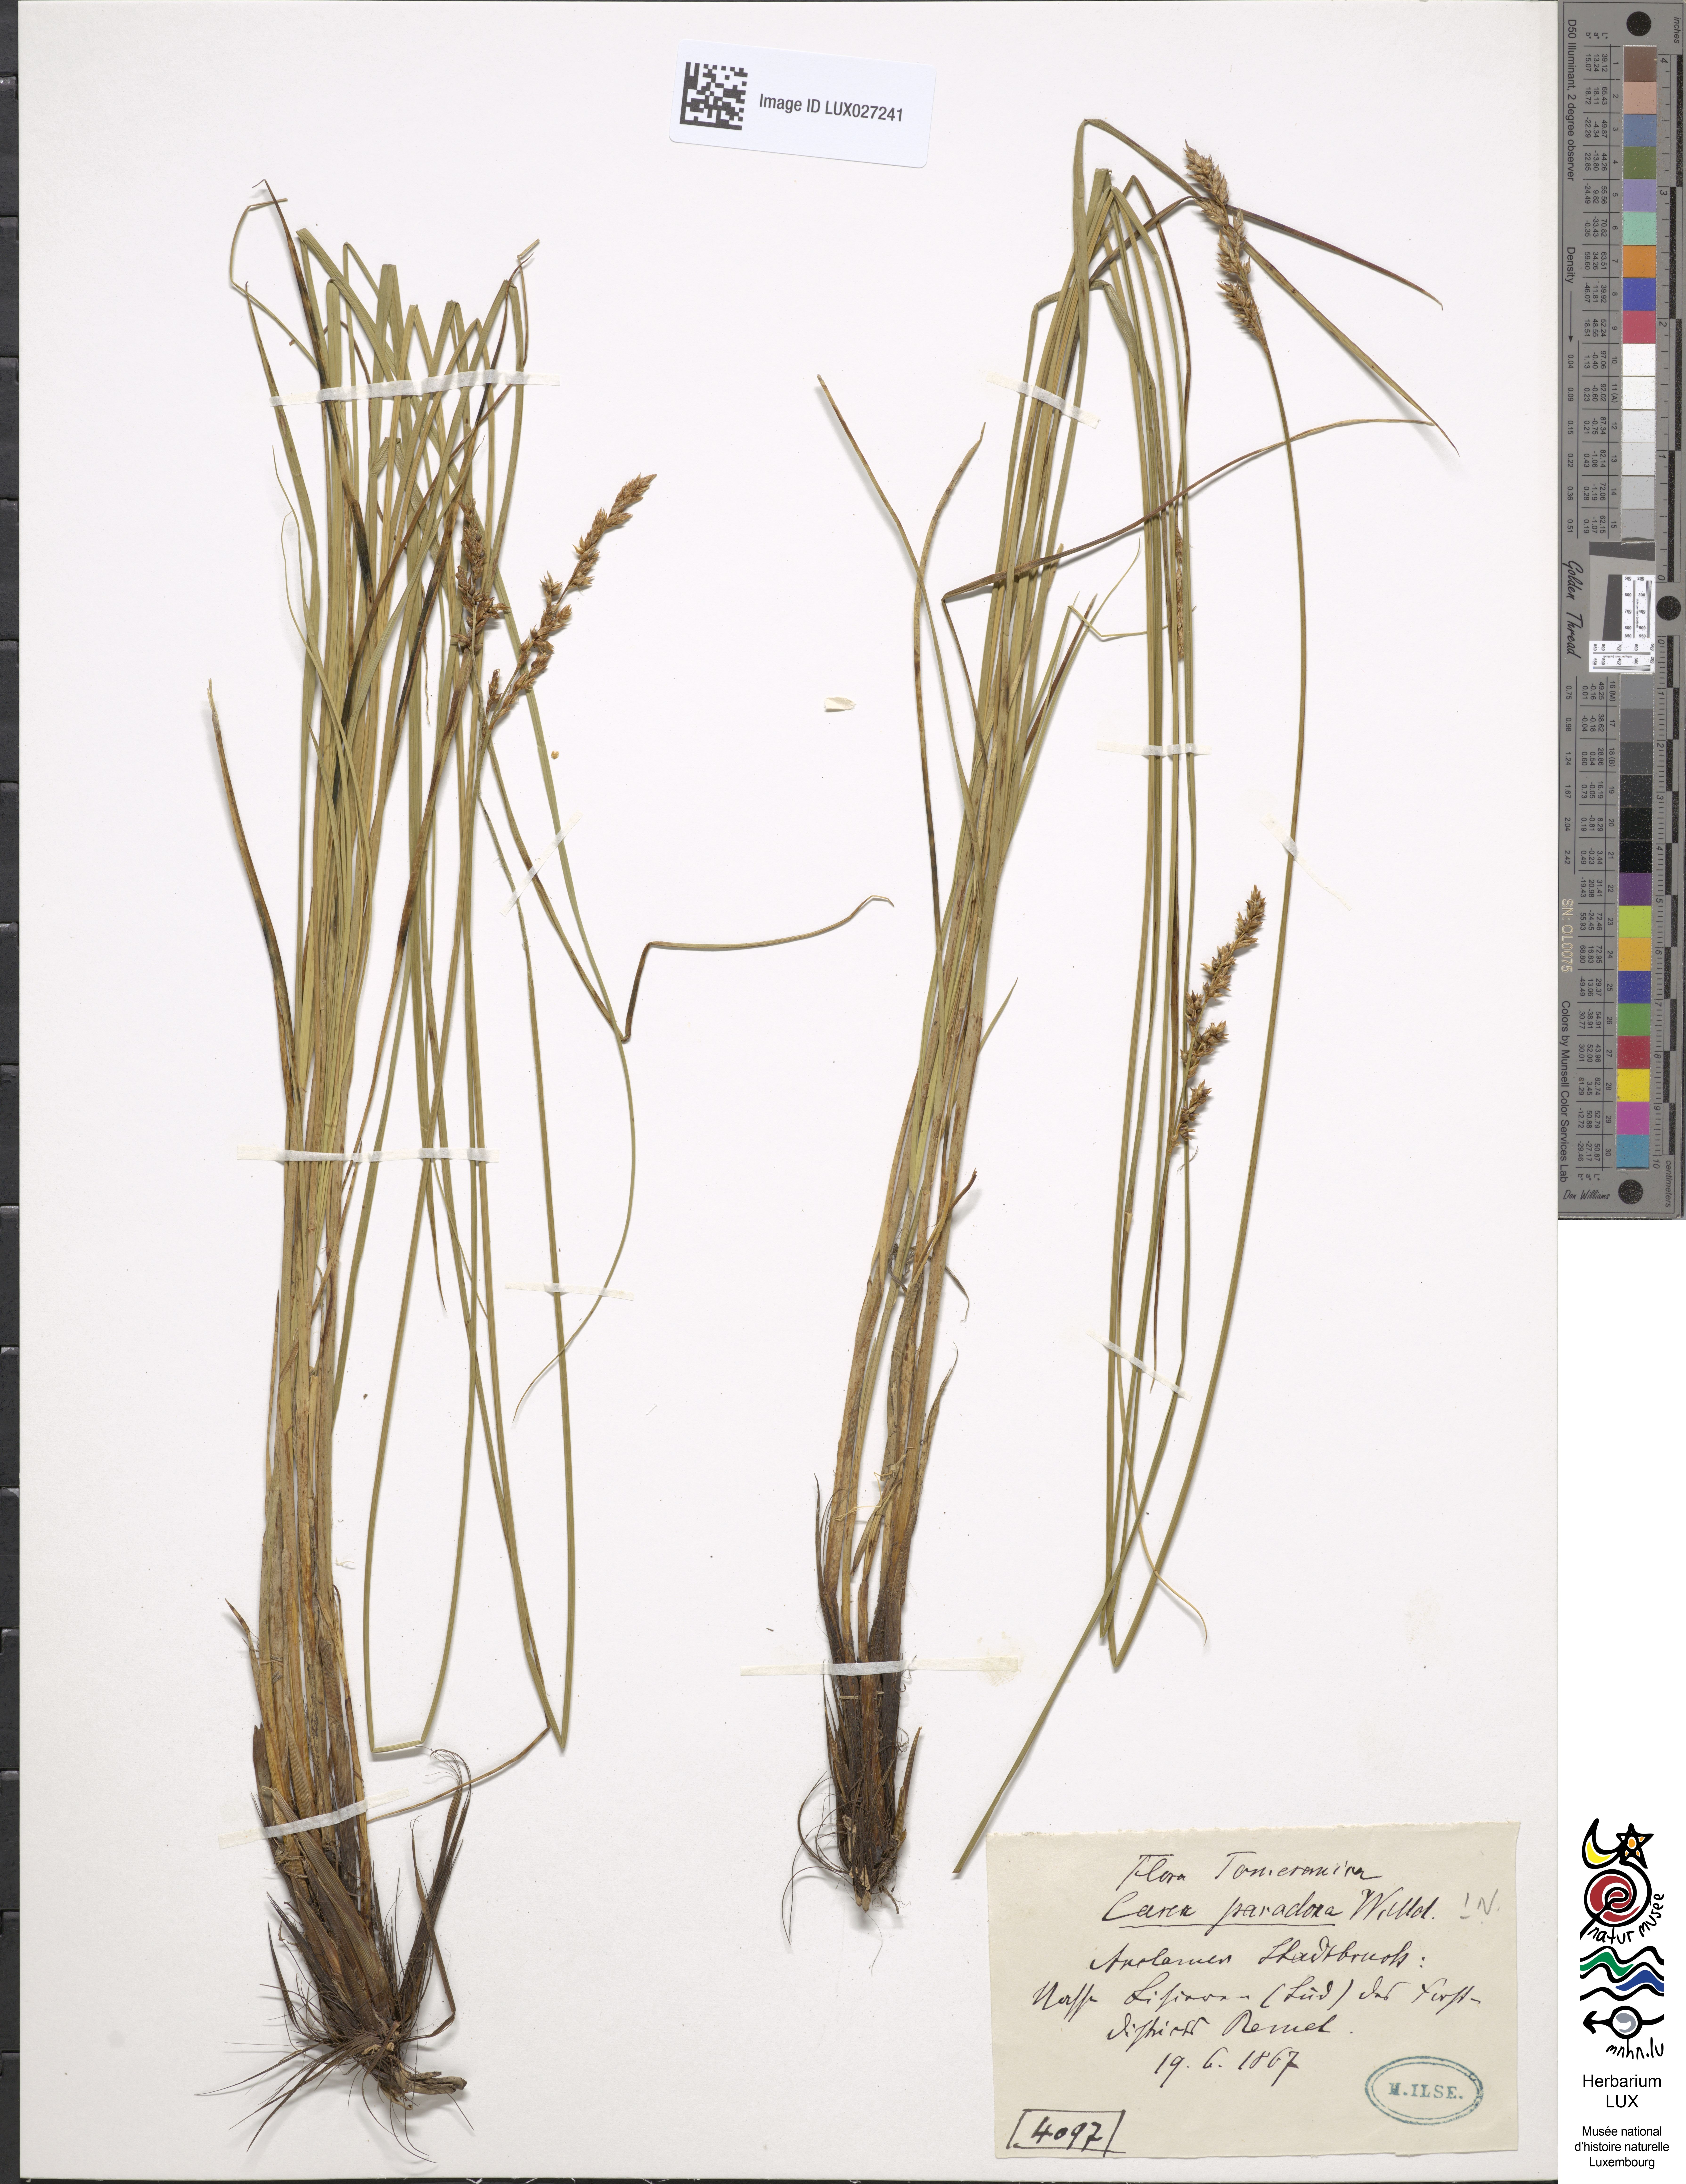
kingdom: Plantae
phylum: Tracheophyta
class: Liliopsida
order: Poales
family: Cyperaceae
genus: Carex
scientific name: Carex appropinquata
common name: Fibrous tussock-sedge
